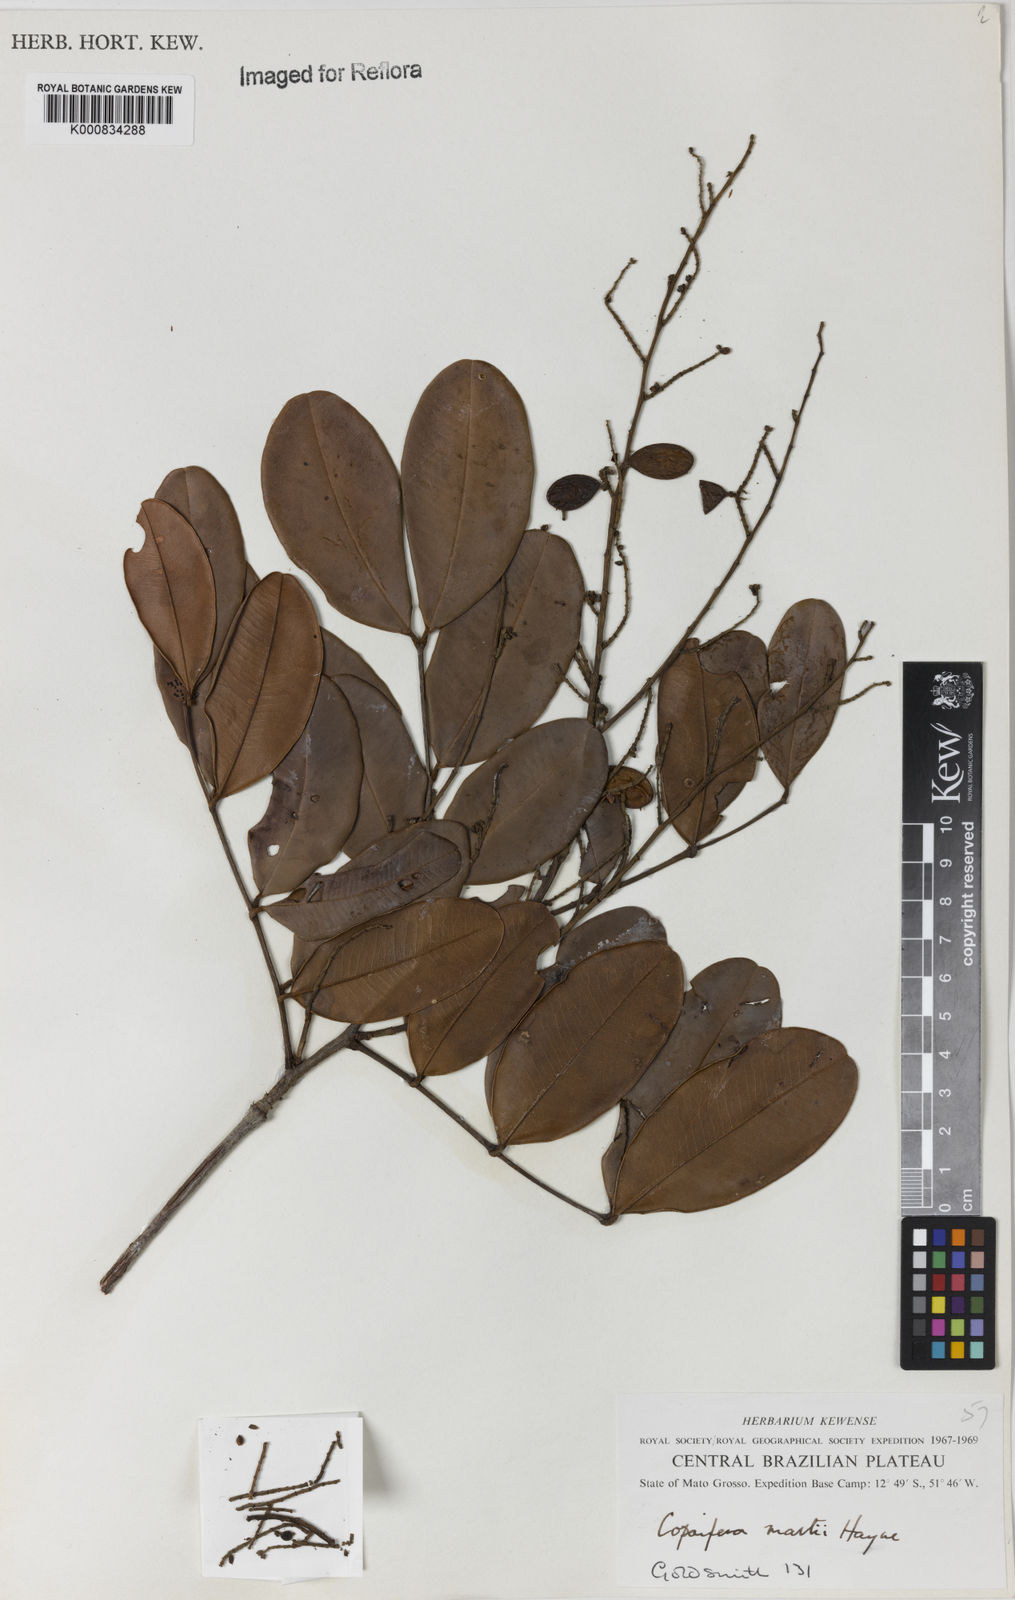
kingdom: Plantae
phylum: Tracheophyta
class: Magnoliopsida
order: Fabales
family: Fabaceae
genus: Copaifera
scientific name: Copaifera martii
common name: Copaiba
